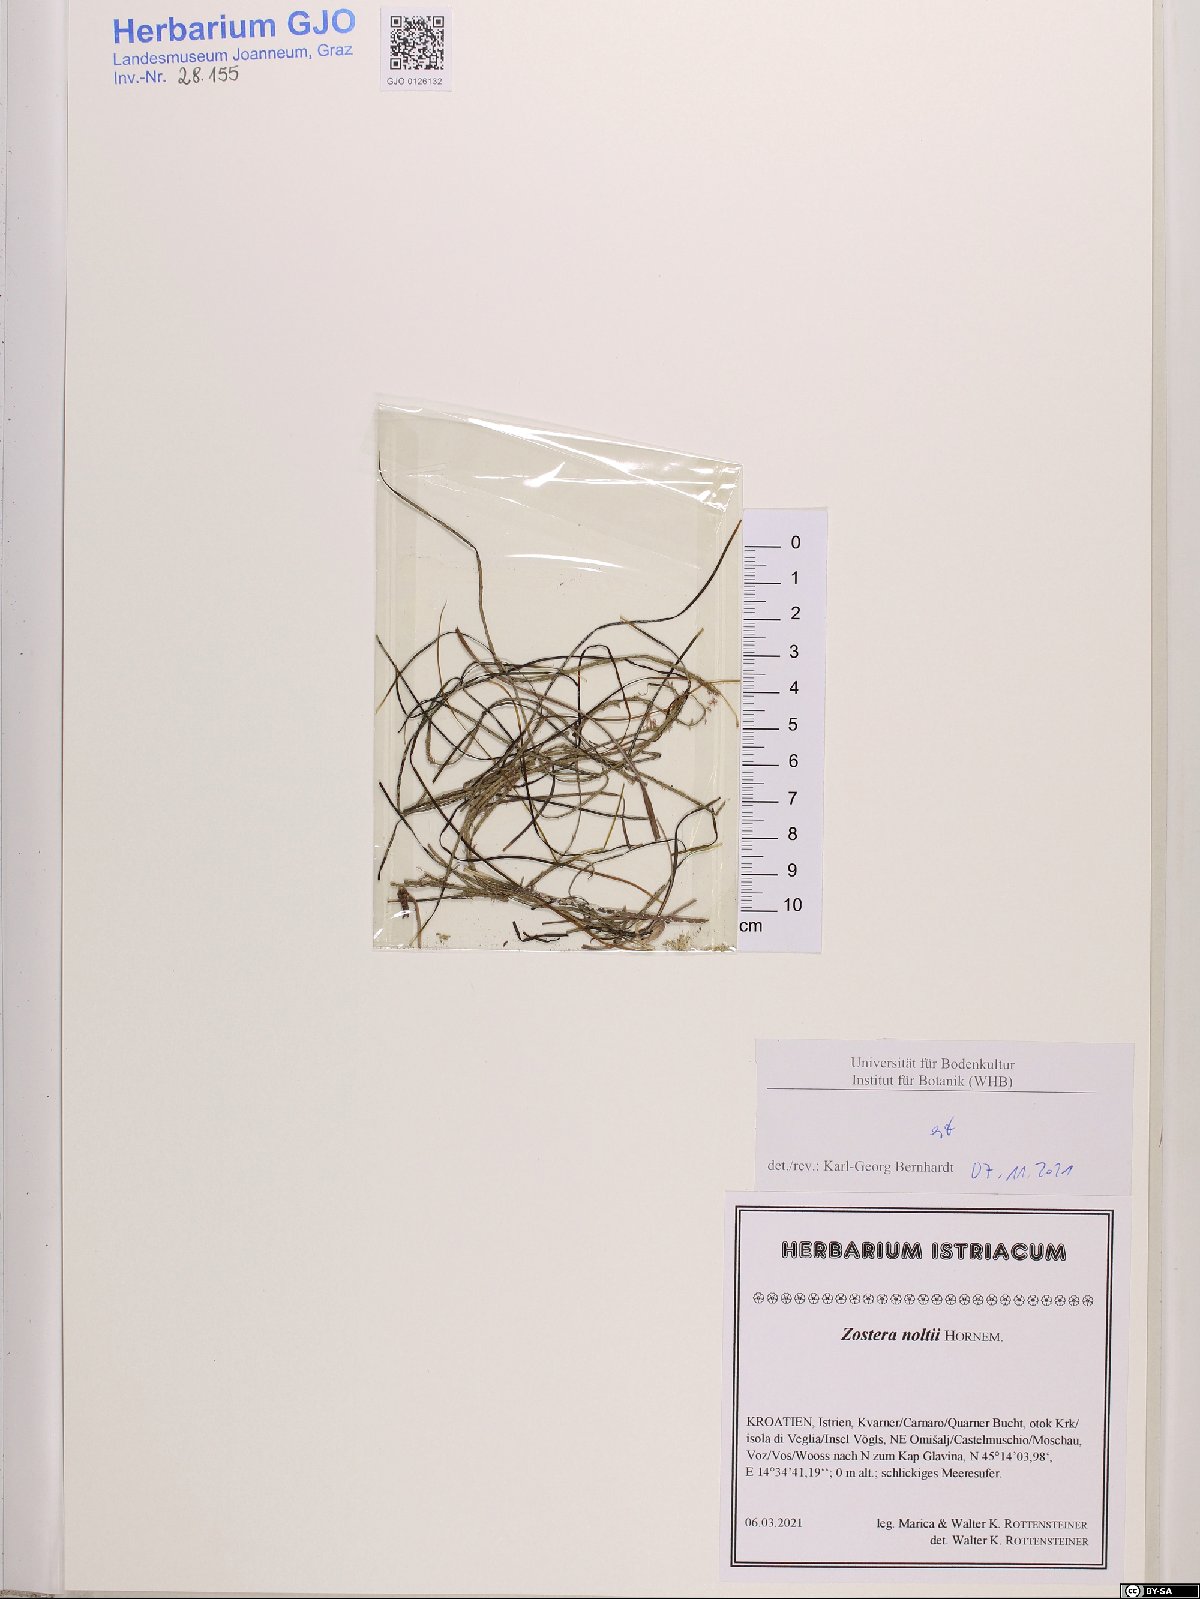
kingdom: Plantae
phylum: Tracheophyta
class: Liliopsida
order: Alismatales
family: Zosteraceae
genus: Zostera
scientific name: Zostera noltii
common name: Dwarf eelgrass
